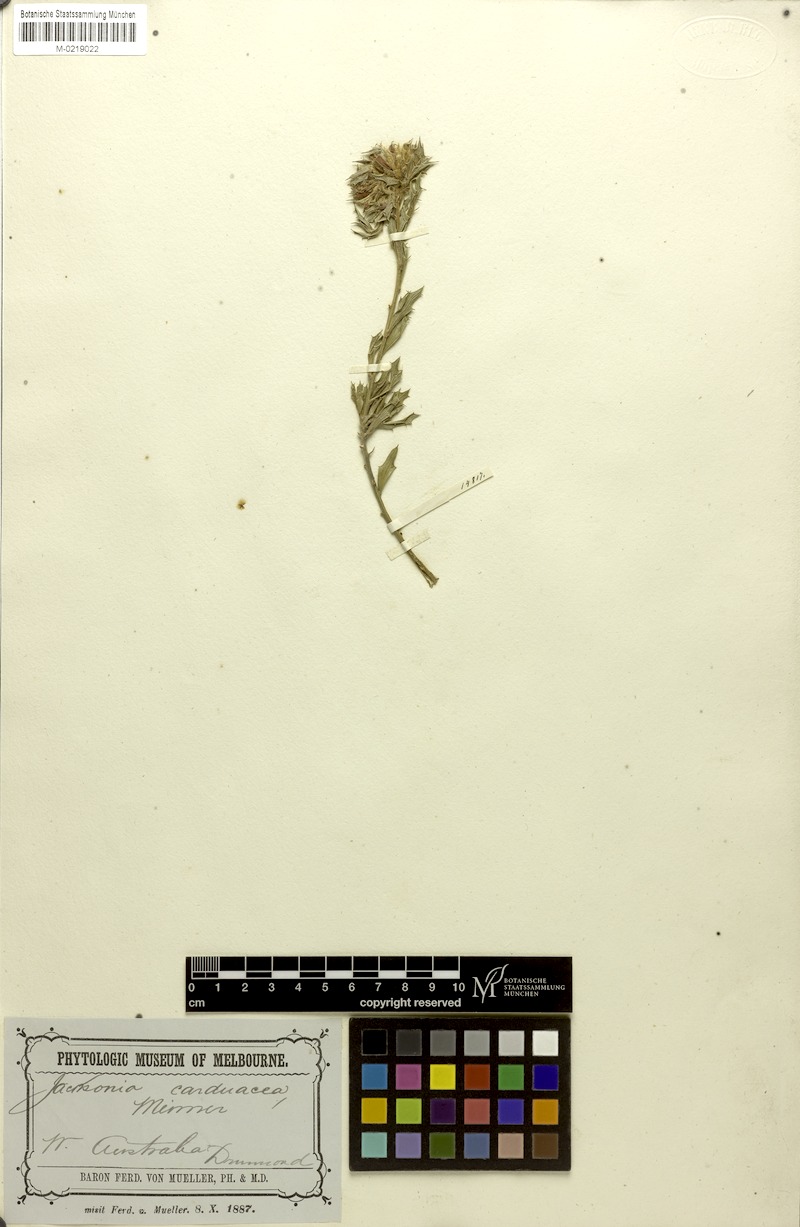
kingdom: Plantae
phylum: Tracheophyta
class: Magnoliopsida
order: Fabales
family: Fabaceae
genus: Jacksonia
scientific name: Jacksonia carduacea
